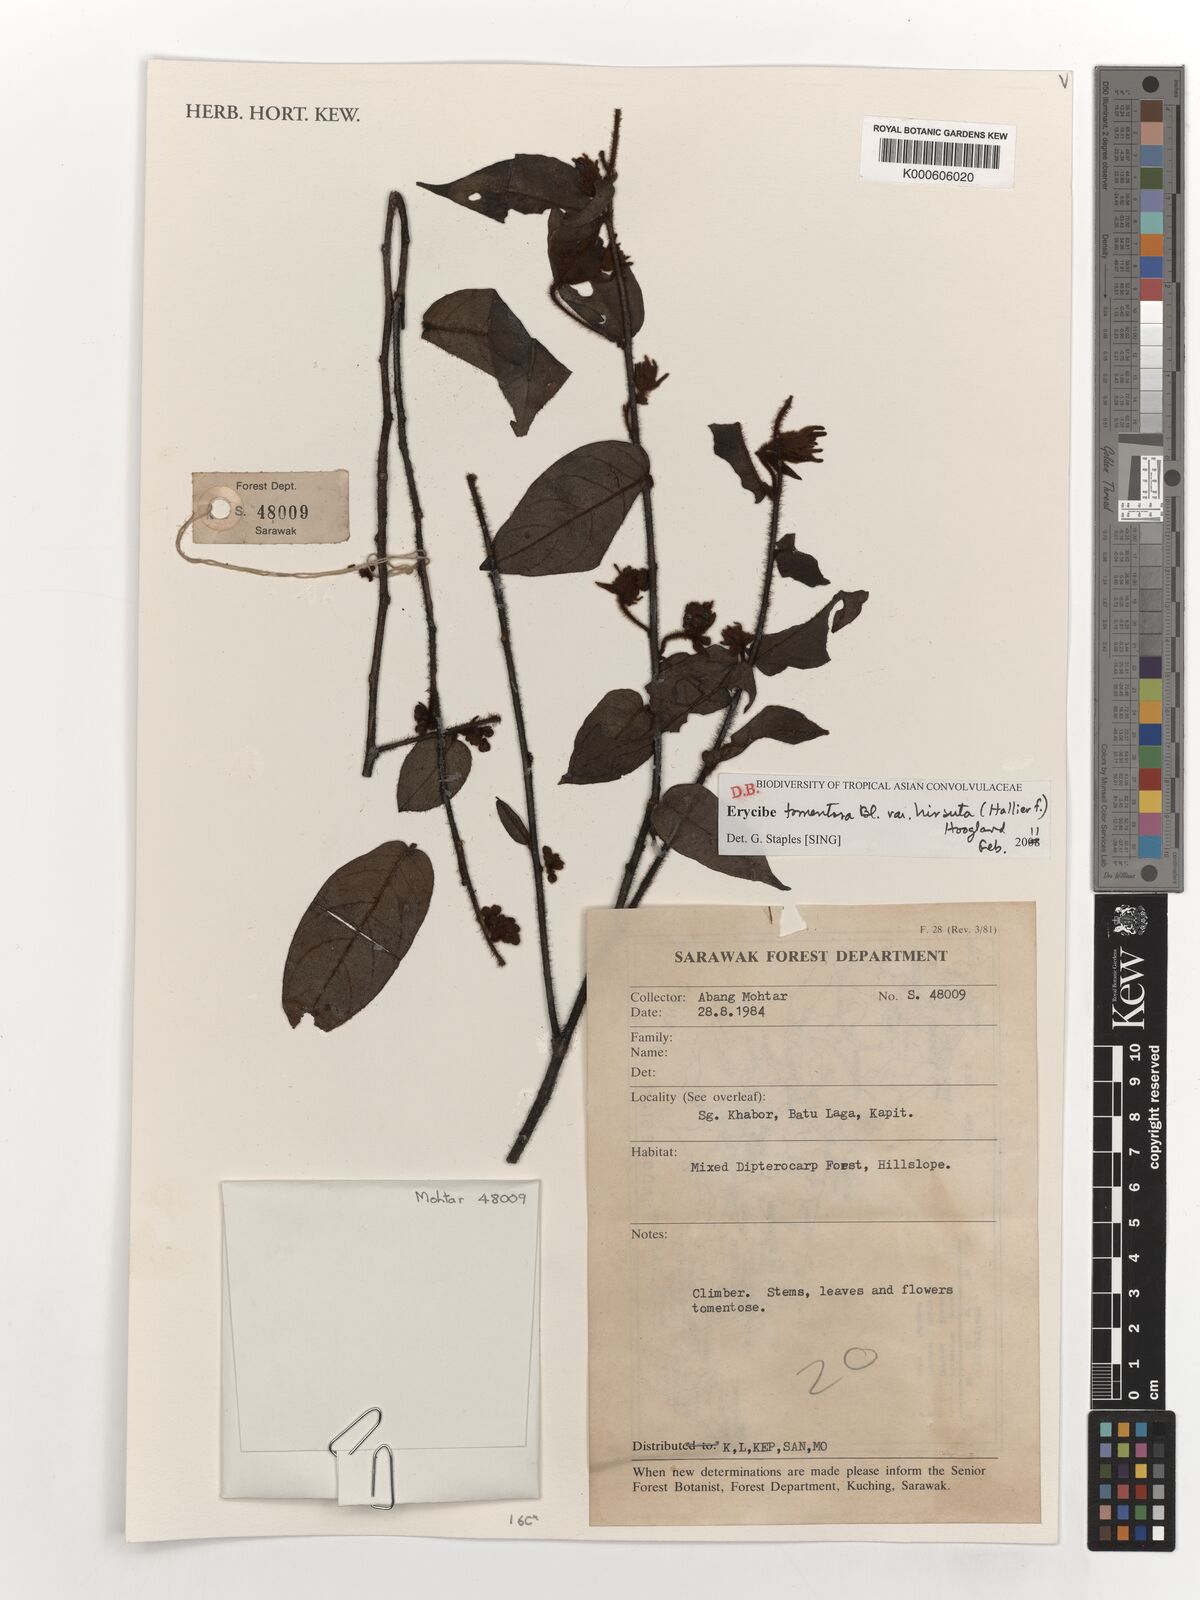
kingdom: Plantae
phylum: Tracheophyta
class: Magnoliopsida
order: Solanales
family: Convolvulaceae
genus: Erycibe
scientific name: Erycibe tomentosa
